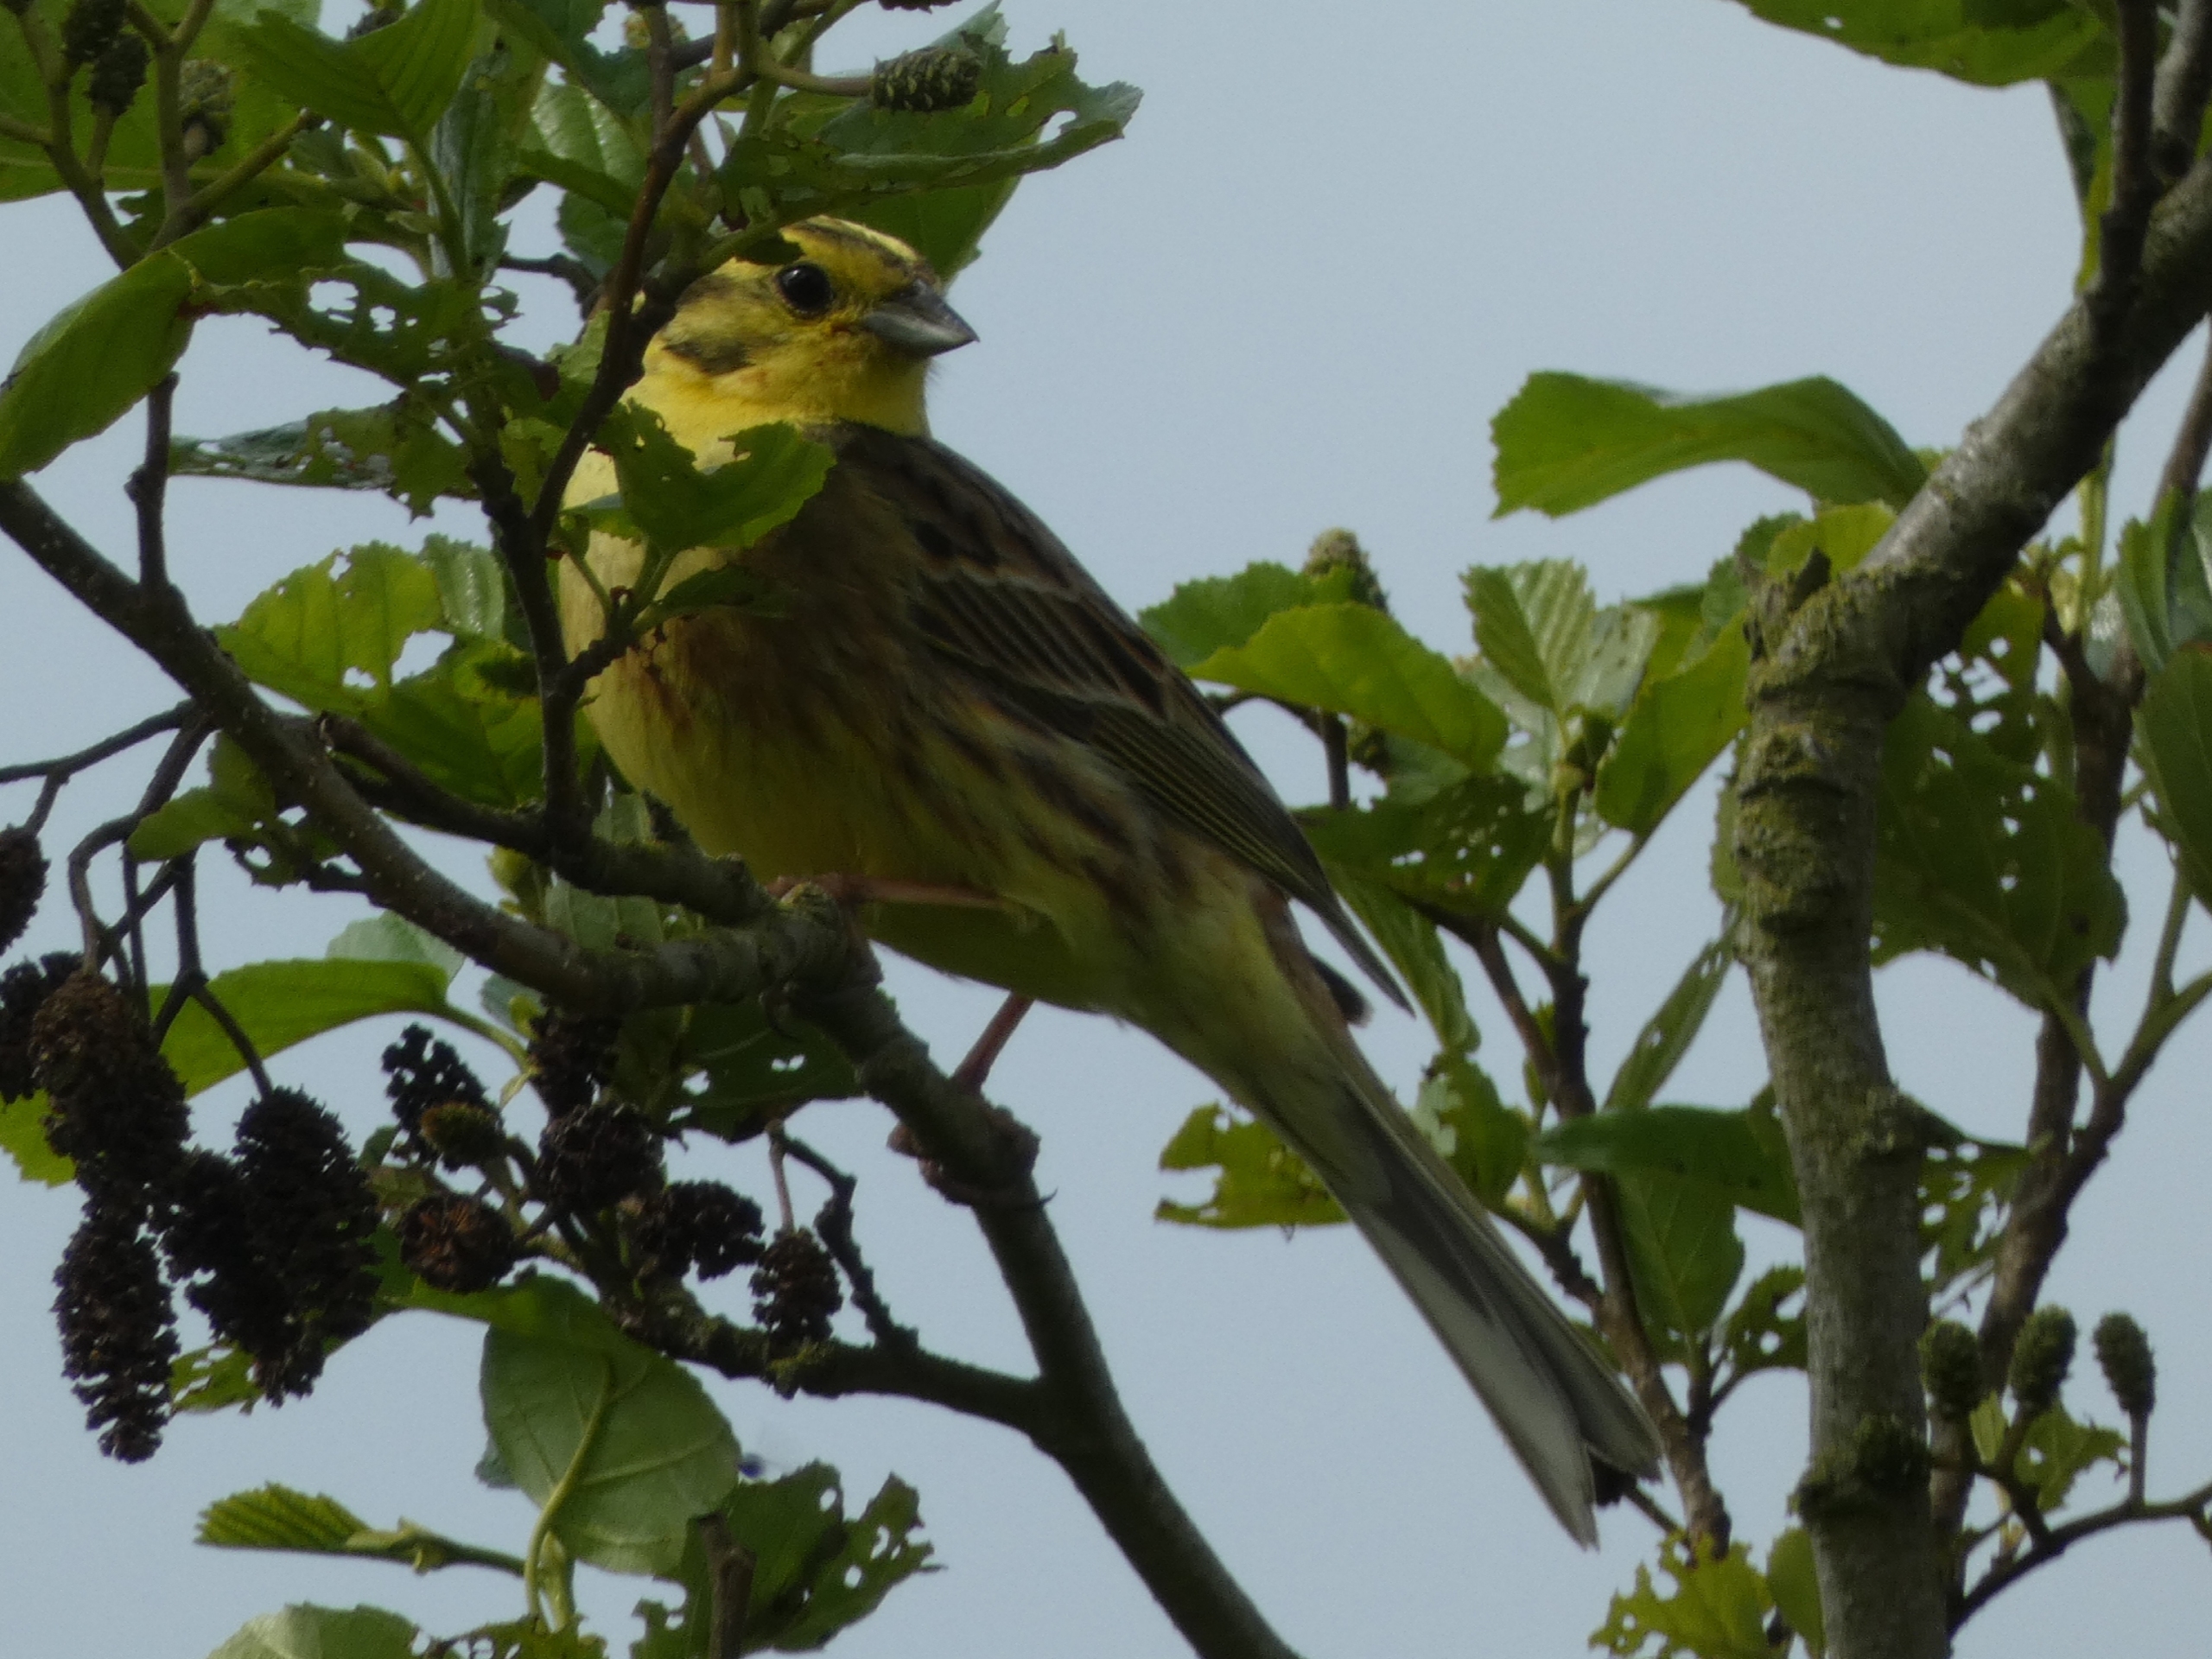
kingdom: Animalia
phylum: Chordata
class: Aves
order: Passeriformes
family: Emberizidae
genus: Emberiza
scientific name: Emberiza citrinella
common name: Gulspurv
